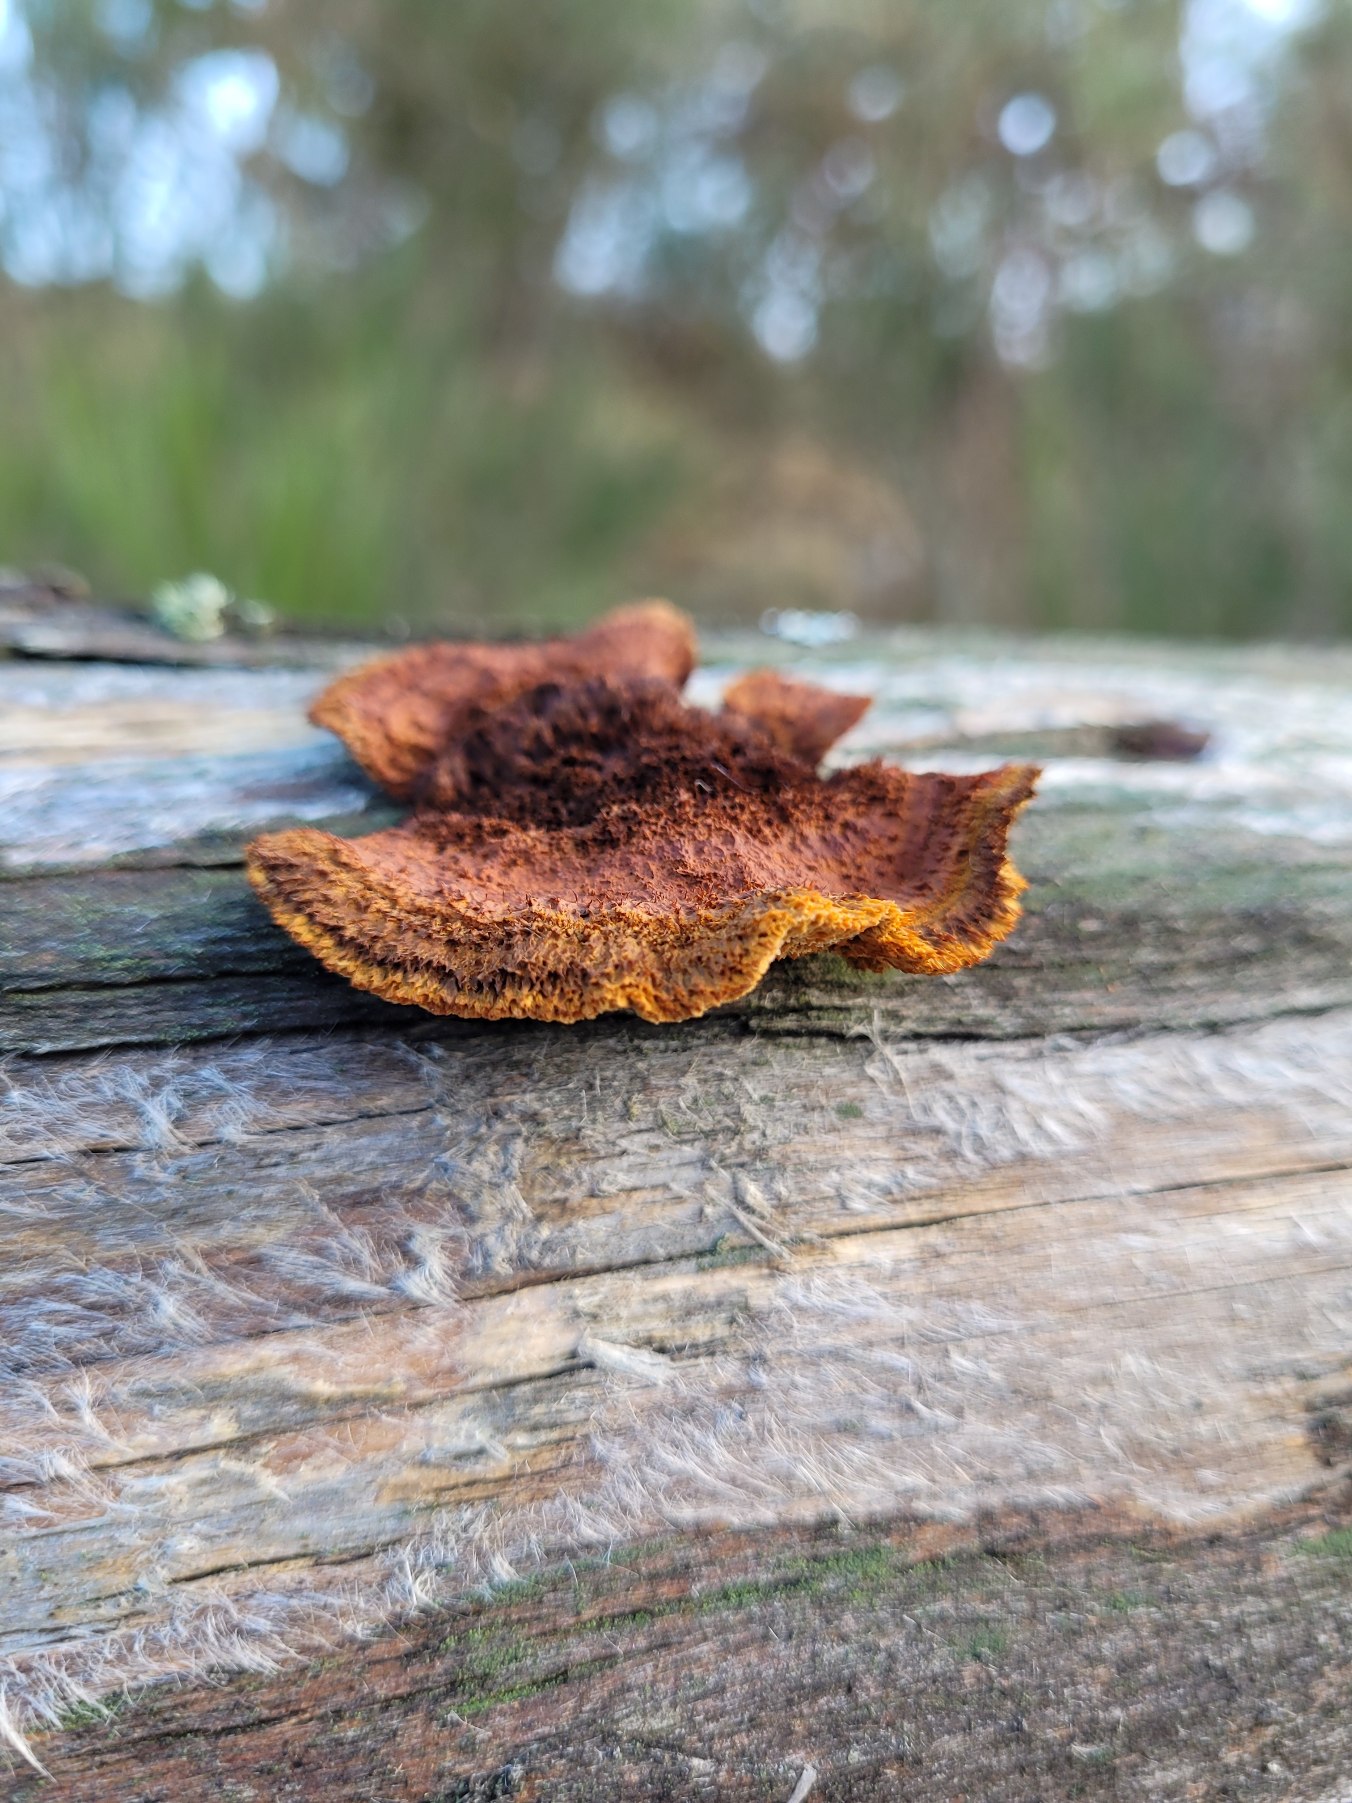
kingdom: Fungi
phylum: Basidiomycota
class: Agaricomycetes
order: Gloeophyllales
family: Gloeophyllaceae
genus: Gloeophyllum
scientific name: Gloeophyllum sepiarium
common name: Fyrre-korkhat
